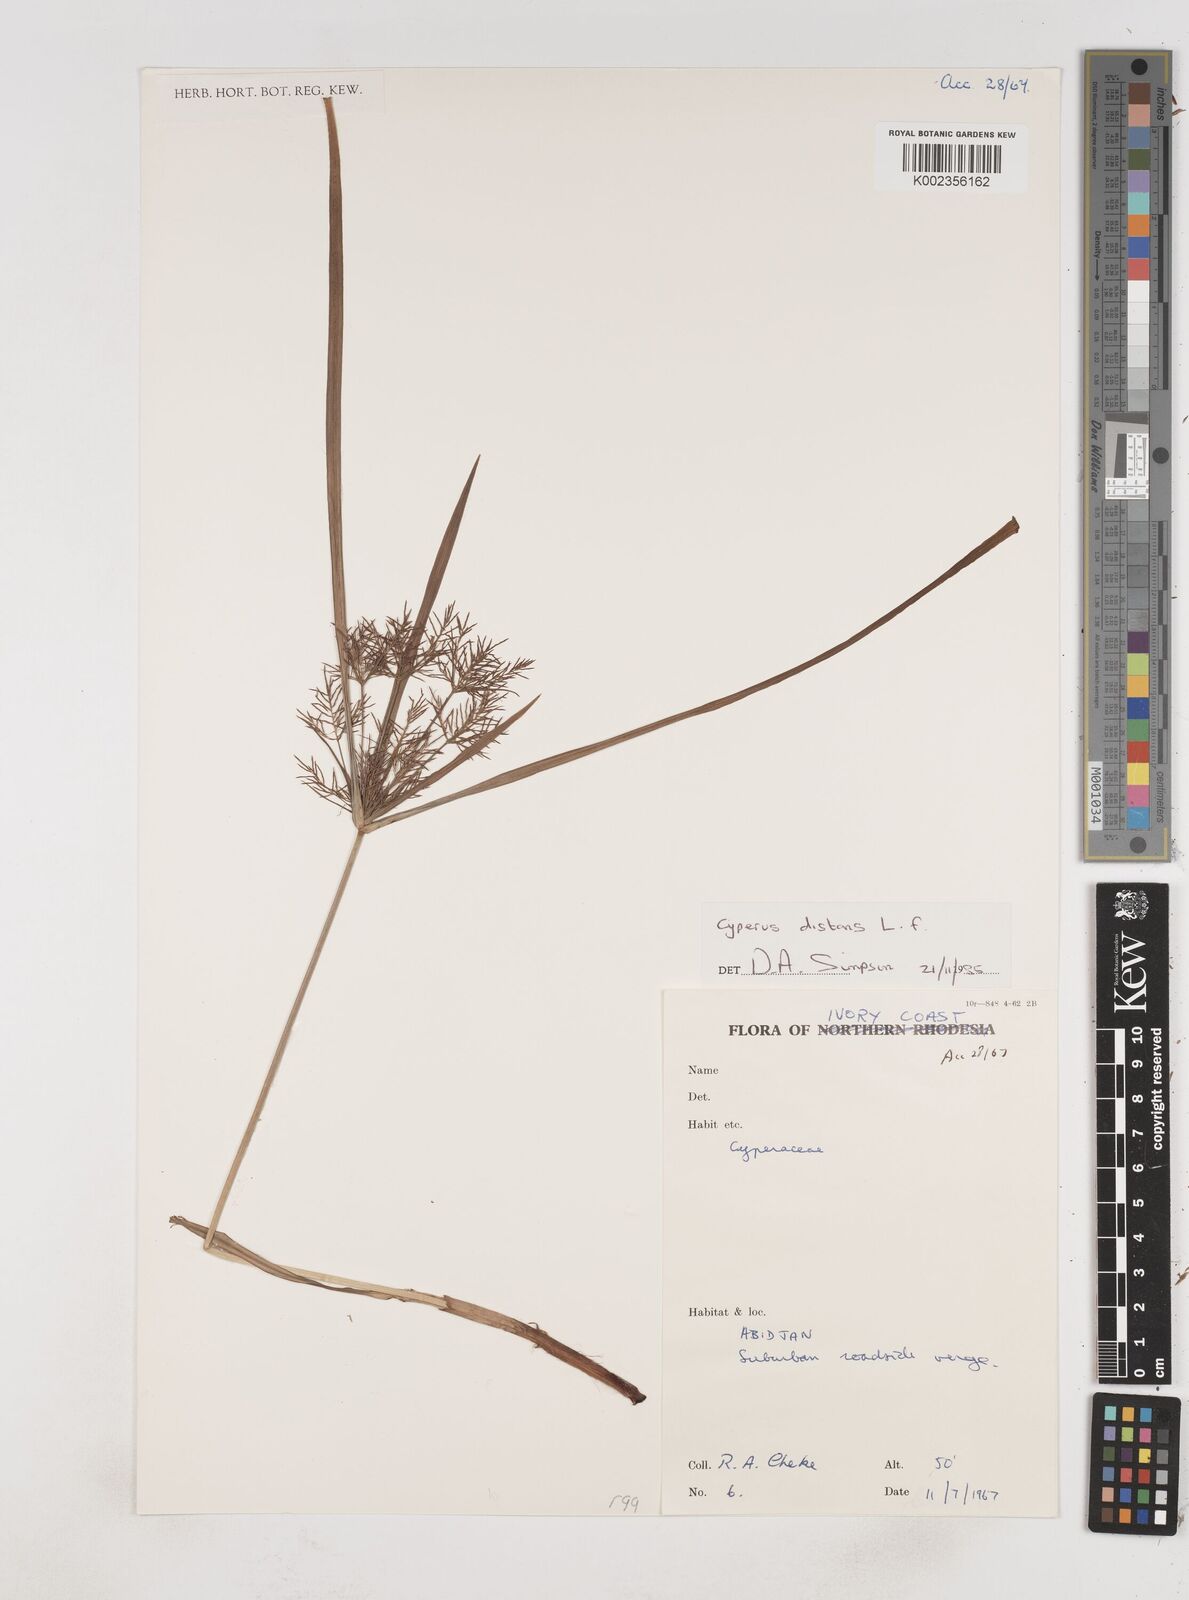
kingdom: Plantae
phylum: Tracheophyta
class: Liliopsida
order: Poales
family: Cyperaceae
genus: Cyperus
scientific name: Cyperus distans
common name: Slender cyperus
